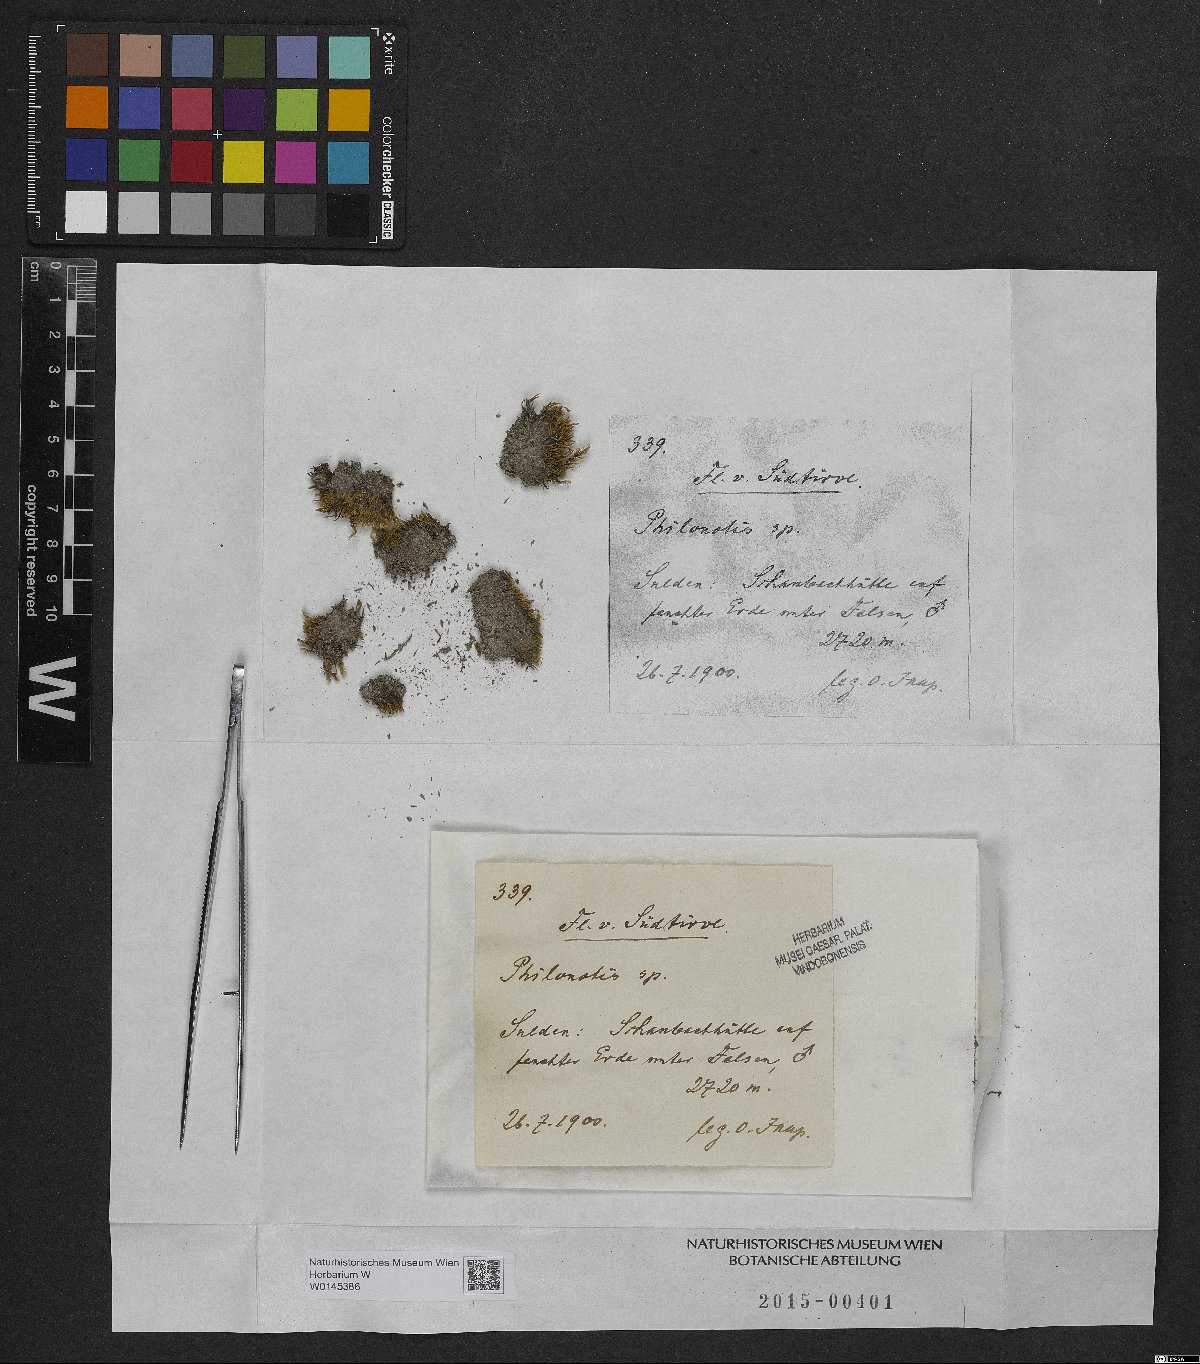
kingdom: Plantae
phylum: Bryophyta
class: Bryopsida
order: Bartramiales
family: Bartramiaceae
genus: Philonotis
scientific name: Philonotis
